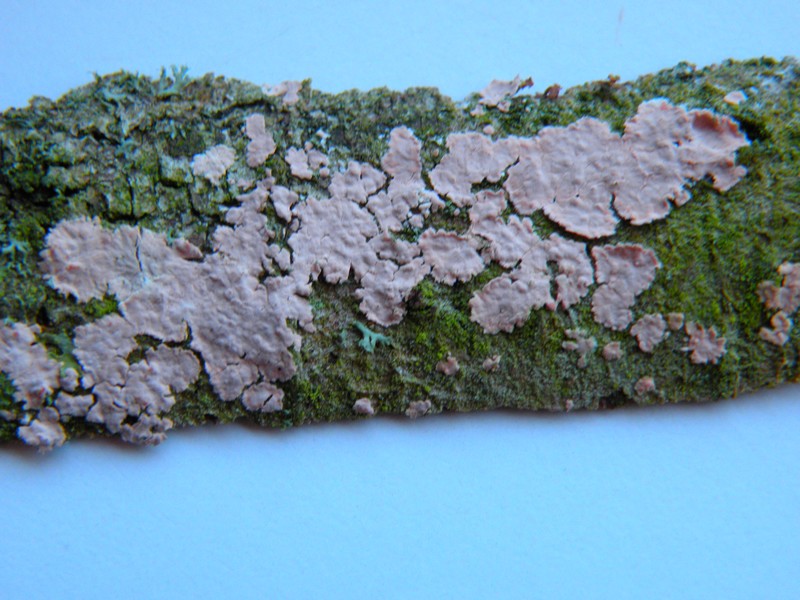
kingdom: Fungi
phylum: Basidiomycota
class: Agaricomycetes
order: Corticiales
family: Corticiaceae
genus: Corticium
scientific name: Corticium roseum
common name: rosa barkskind
